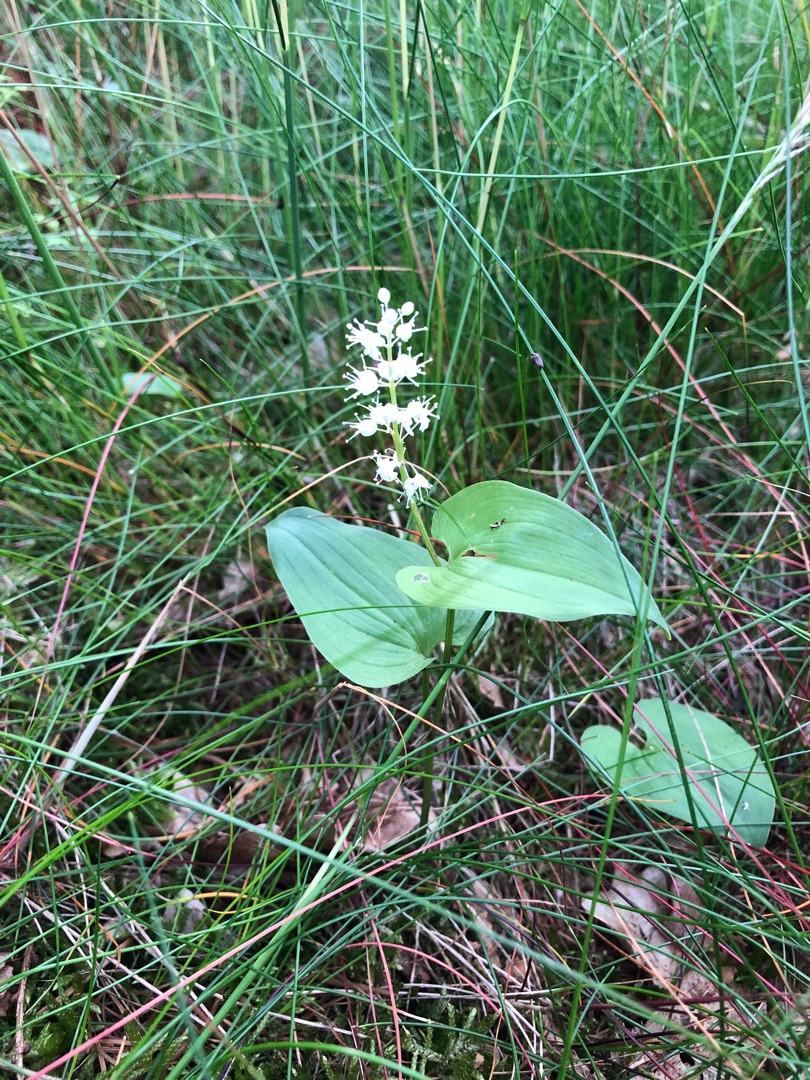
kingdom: Plantae
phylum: Tracheophyta
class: Liliopsida
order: Asparagales
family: Asparagaceae
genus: Maianthemum
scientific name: Maianthemum bifolium
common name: Majblomst
